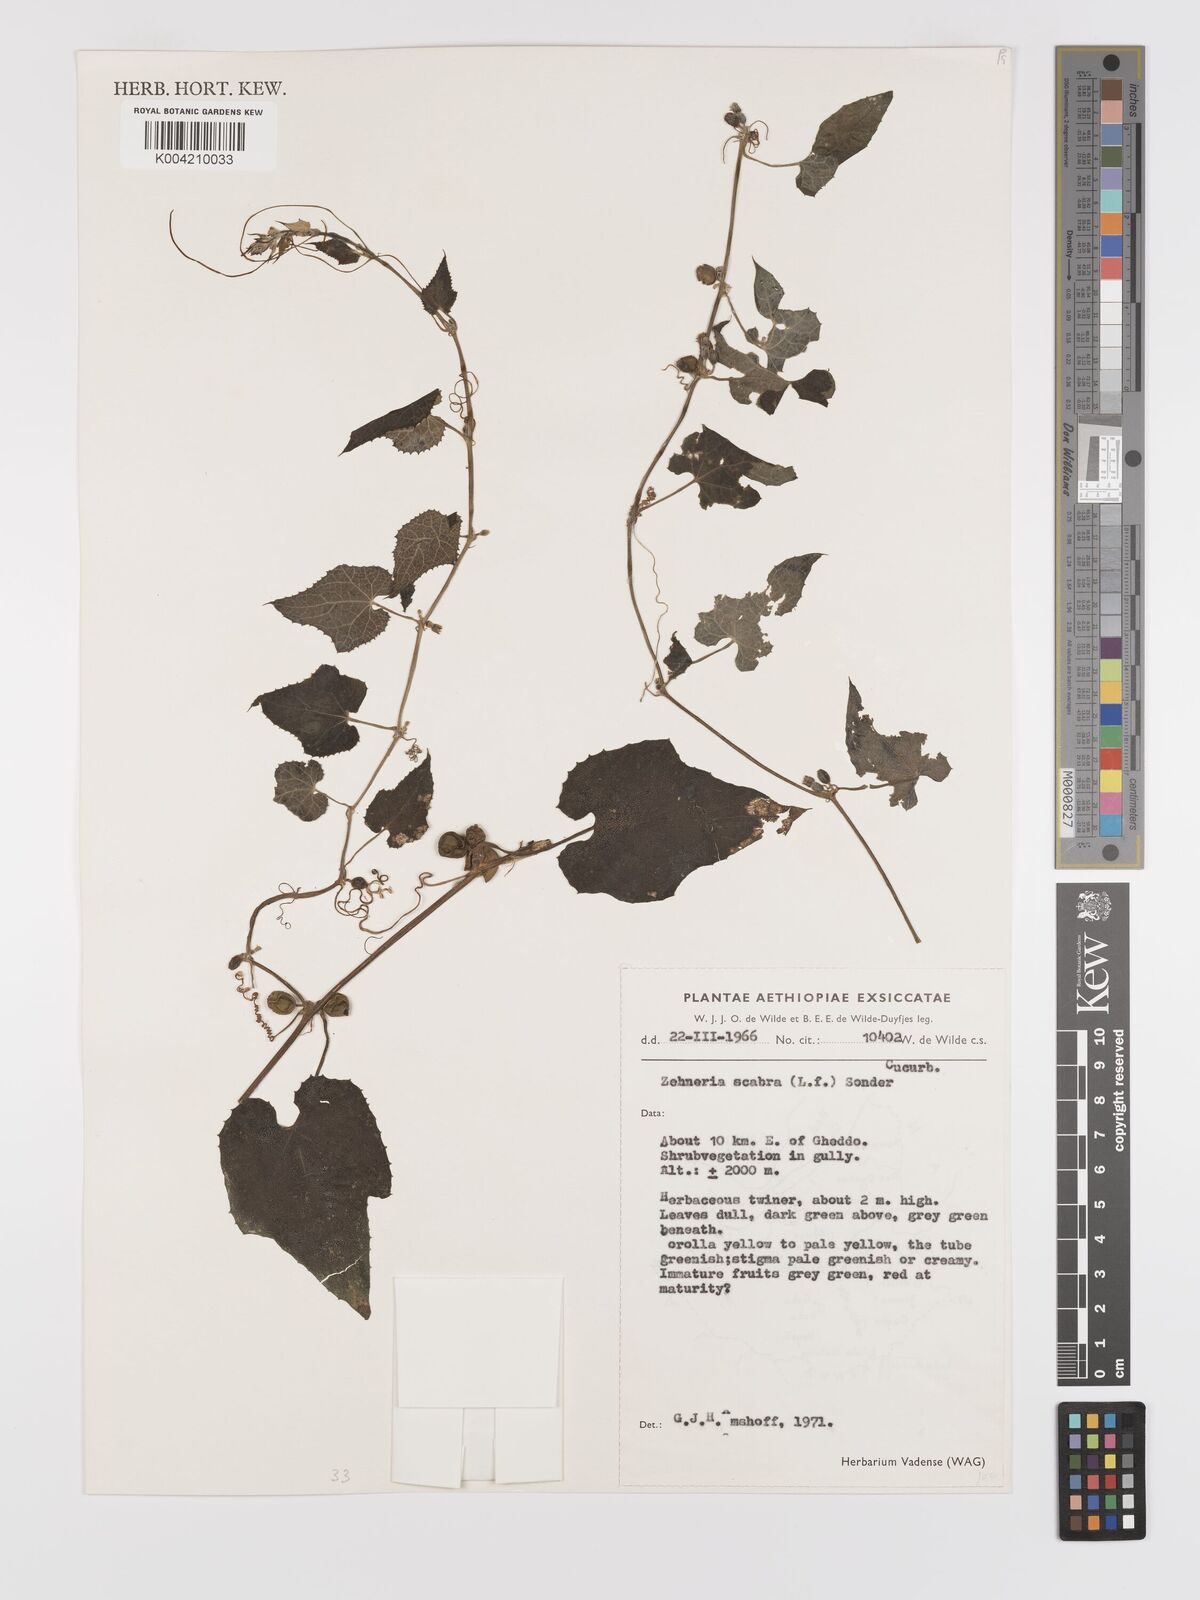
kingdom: Plantae
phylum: Tracheophyta
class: Magnoliopsida
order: Cucurbitales
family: Cucurbitaceae
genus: Zehneria
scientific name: Zehneria scabra
